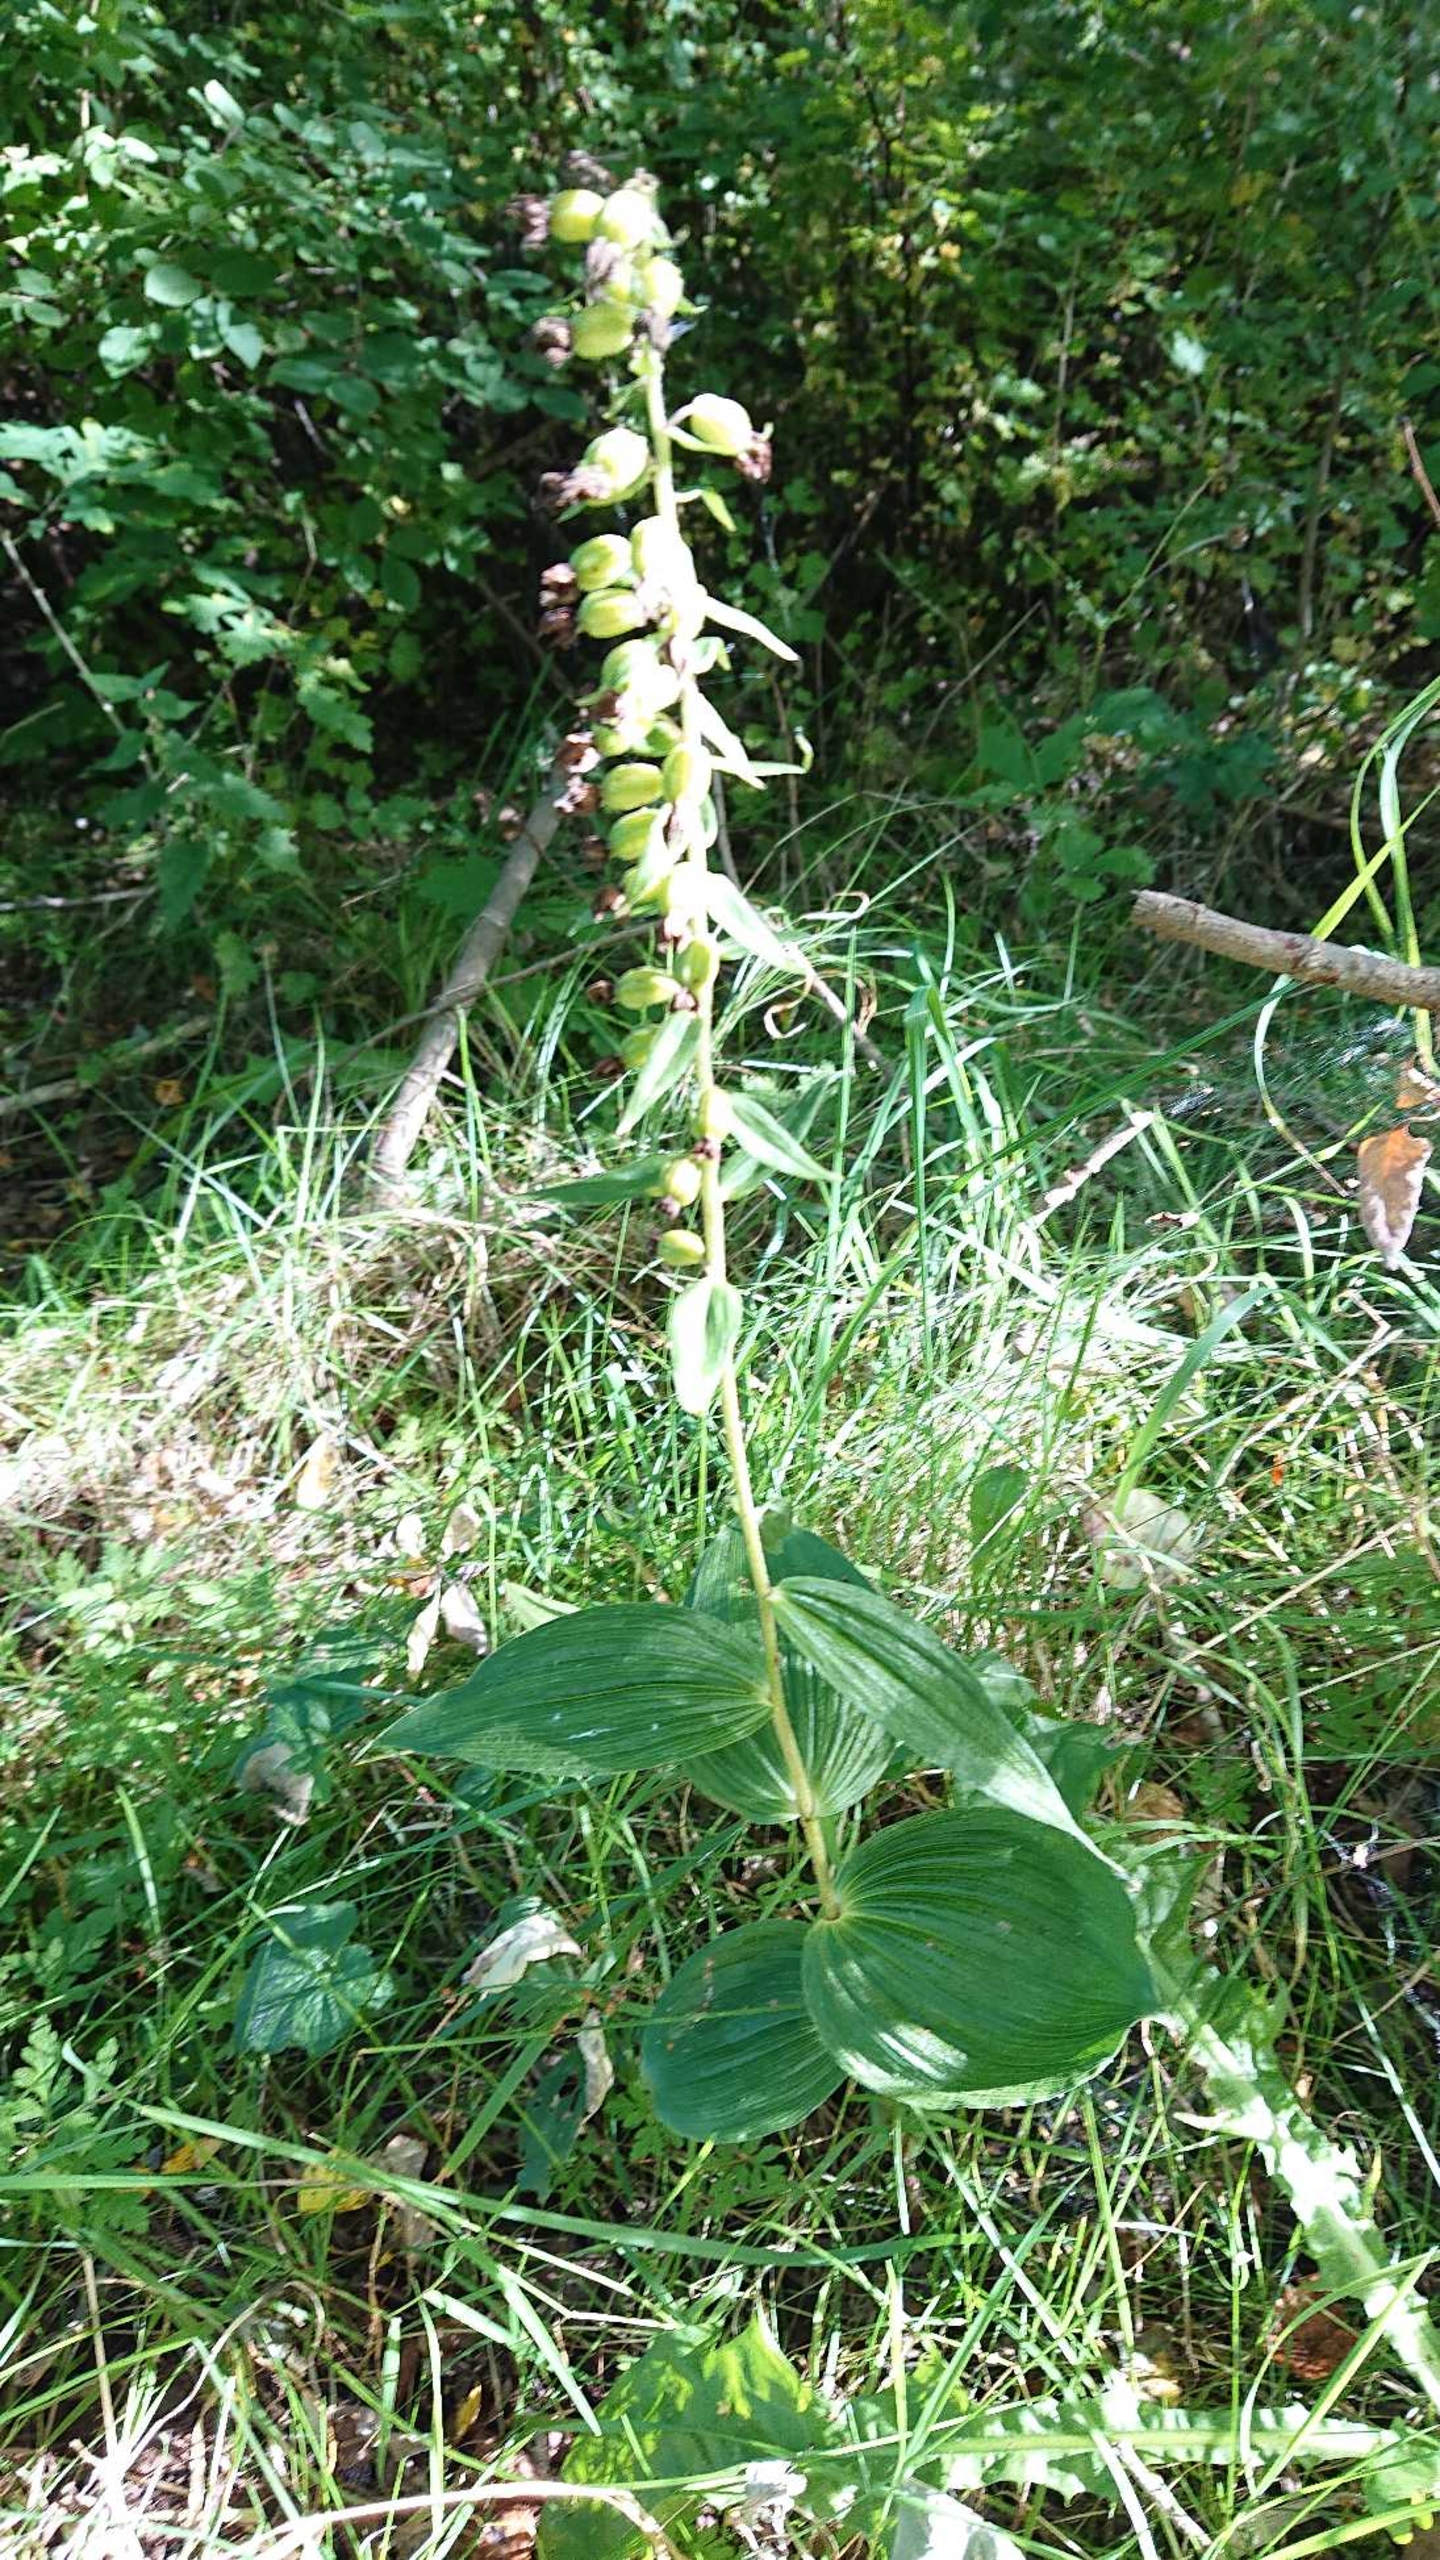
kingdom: Plantae
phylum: Tracheophyta
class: Liliopsida
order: Asparagales
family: Orchidaceae
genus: Epipactis
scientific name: Epipactis helleborine
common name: Skov-hullæbe
